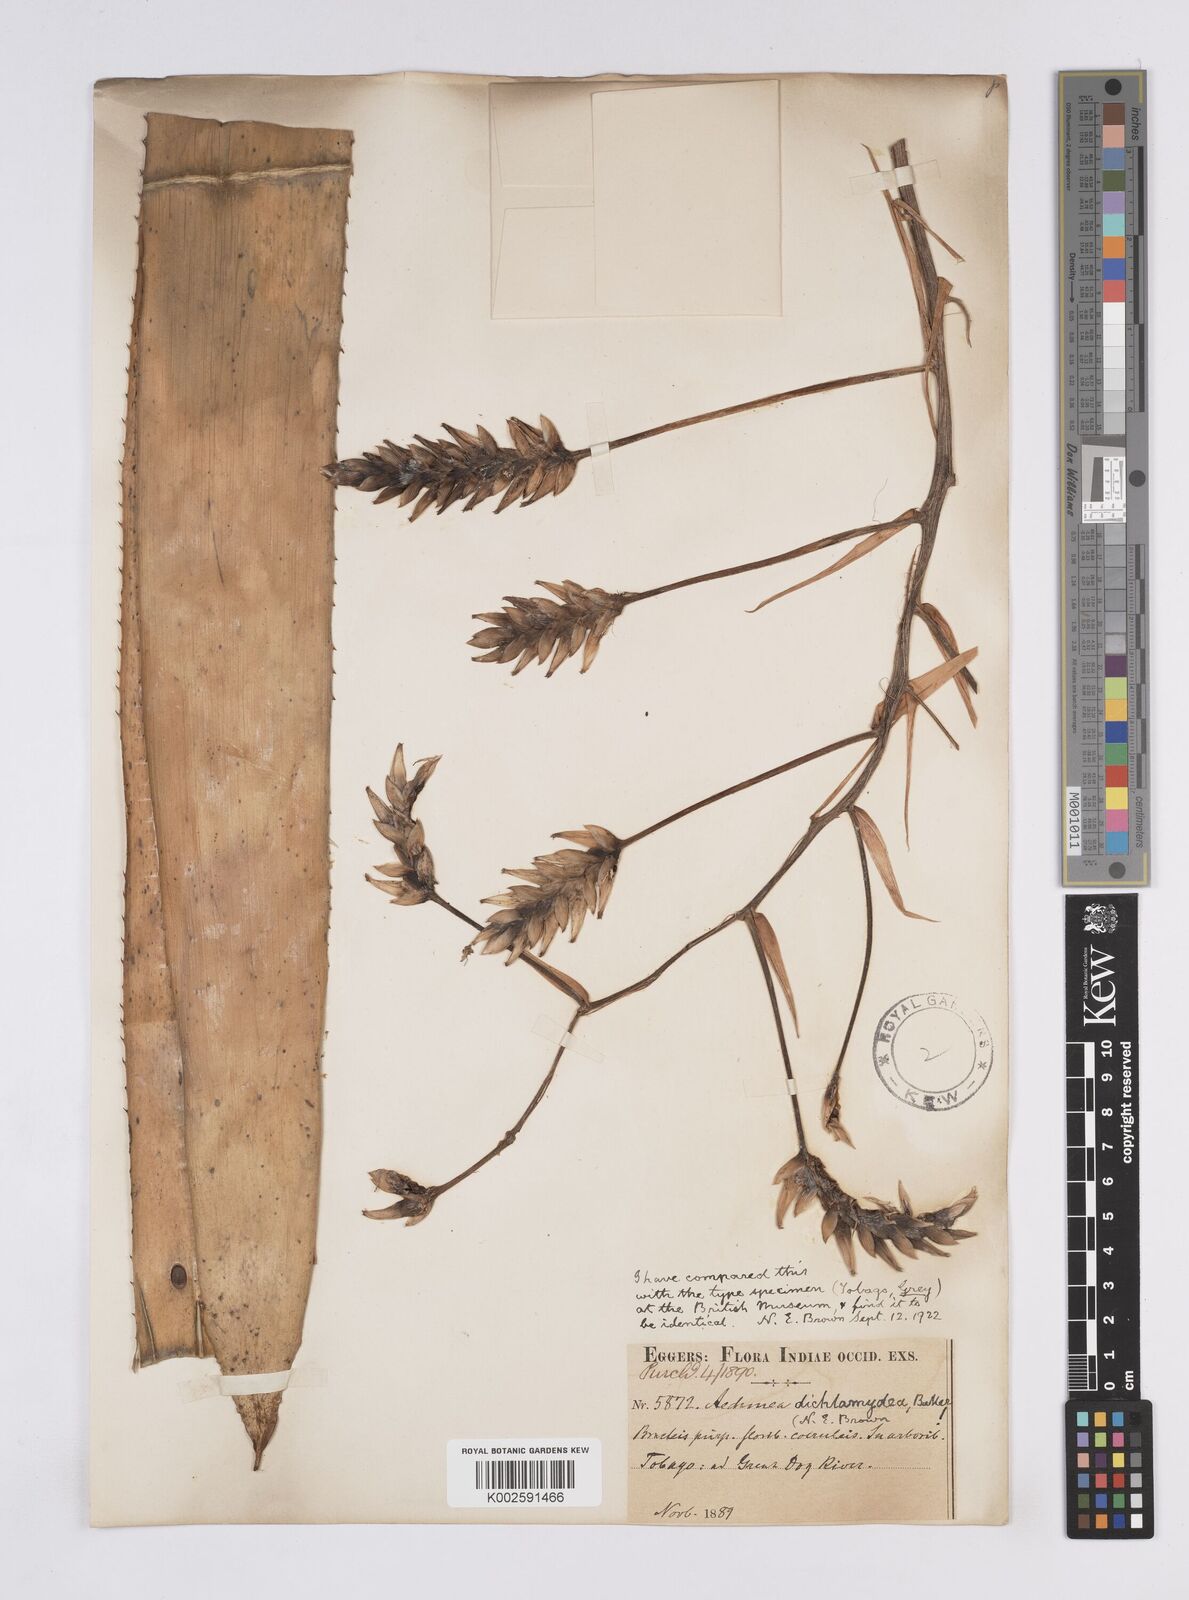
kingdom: Plantae
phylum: Tracheophyta
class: Liliopsida
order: Poales
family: Bromeliaceae
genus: Aechmea
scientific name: Aechmea dichlamydea
